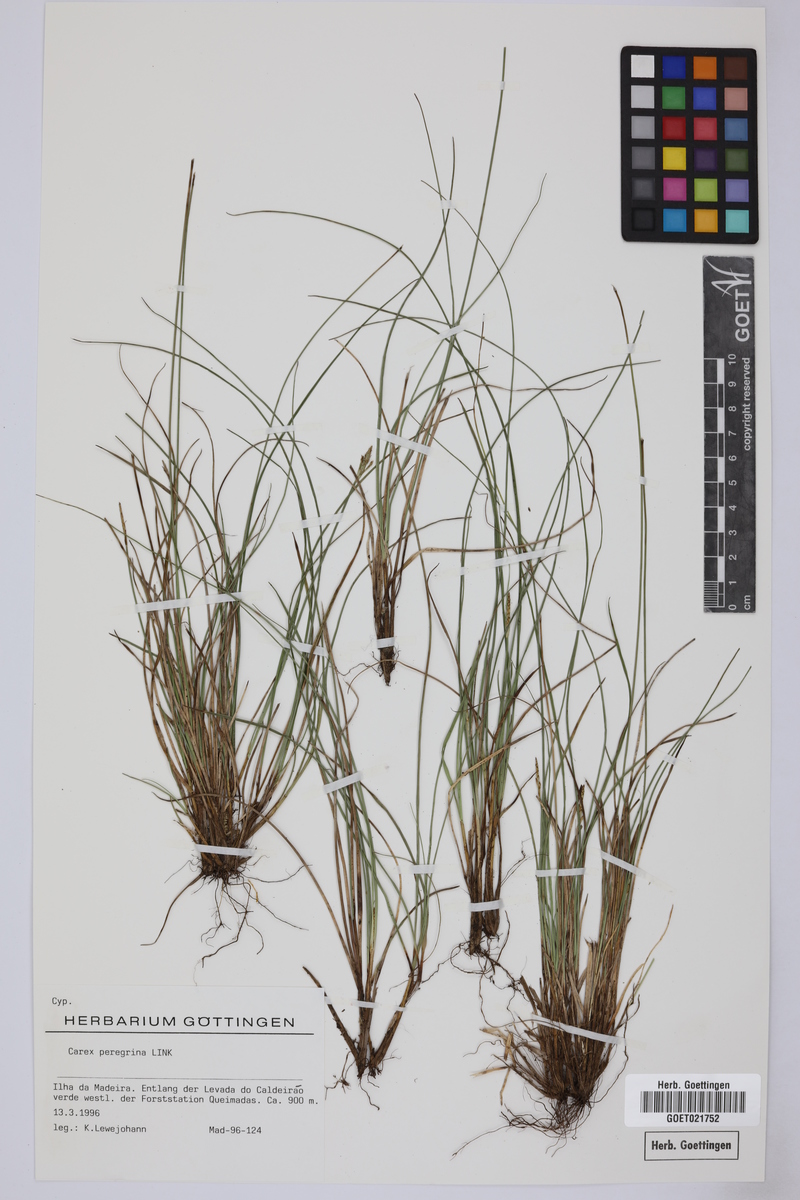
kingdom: Plantae
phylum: Tracheophyta
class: Liliopsida
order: Poales
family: Cyperaceae
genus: Carex
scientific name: Carex peregrina
